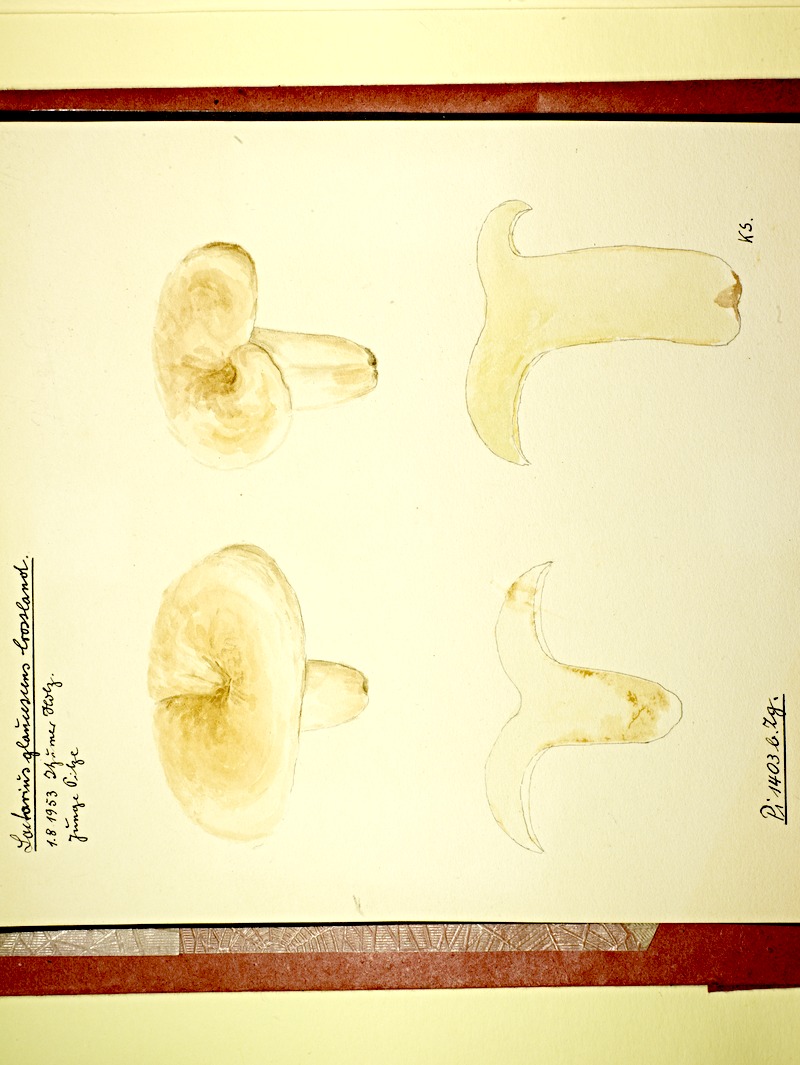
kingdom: Fungi
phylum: Basidiomycota
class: Agaricomycetes
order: Russulales
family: Russulaceae
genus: Lactifluus
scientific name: Lactifluus glaucescens
